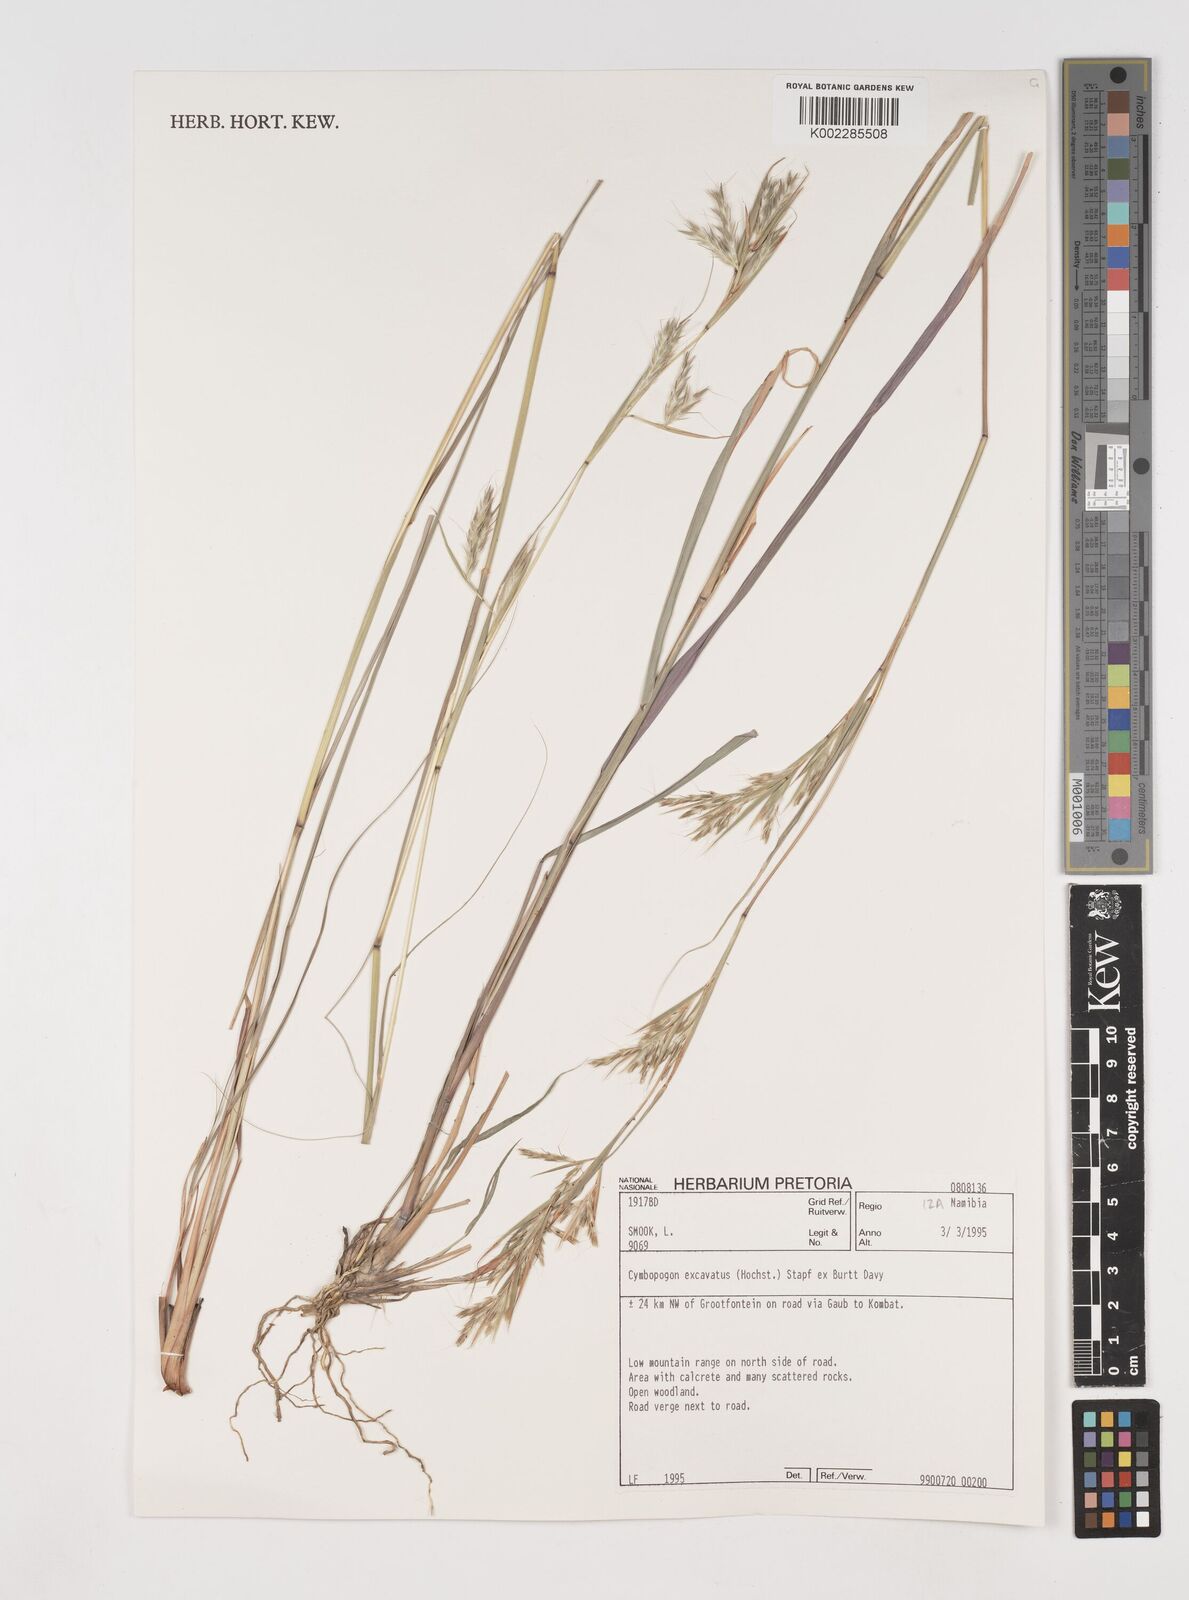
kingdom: Plantae
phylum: Tracheophyta
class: Liliopsida
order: Poales
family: Poaceae
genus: Cymbopogon
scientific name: Cymbopogon caesius
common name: Kachi grass
